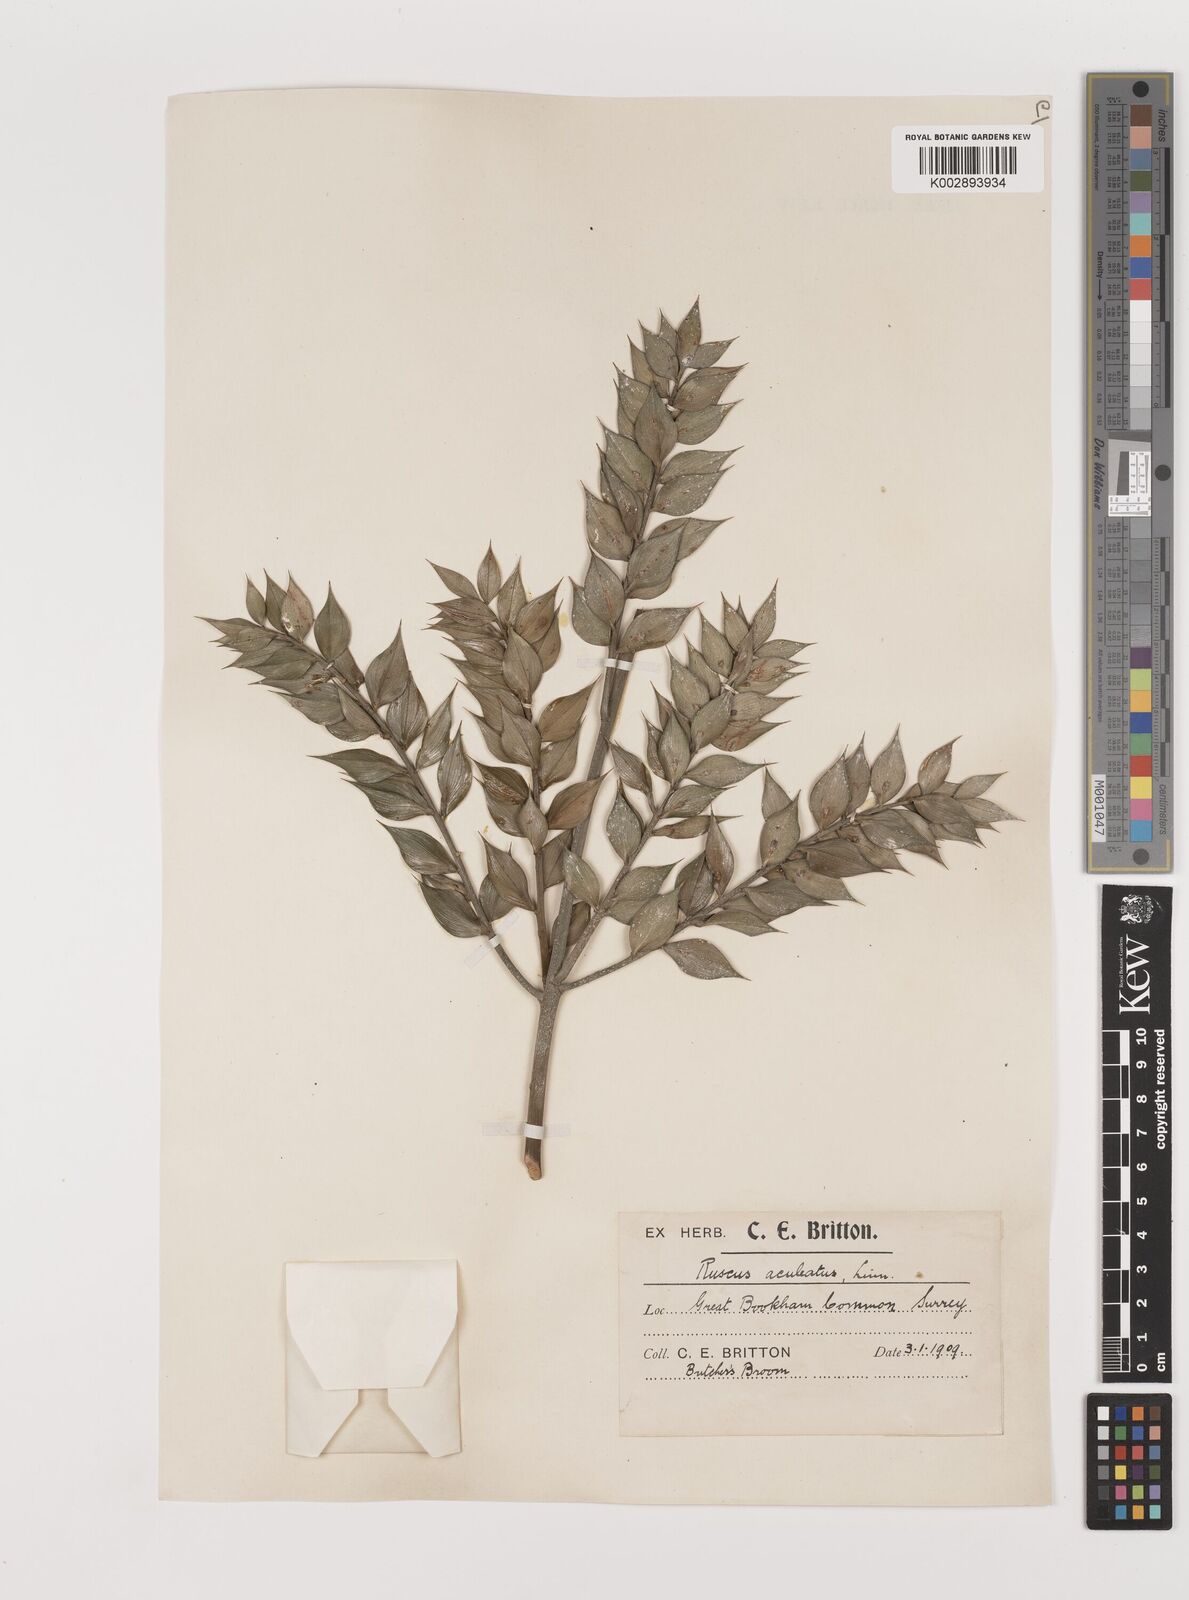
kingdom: Plantae
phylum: Tracheophyta
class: Liliopsida
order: Asparagales
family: Asparagaceae
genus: Ruscus
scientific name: Ruscus aculeatus
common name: Butcher's-broom
